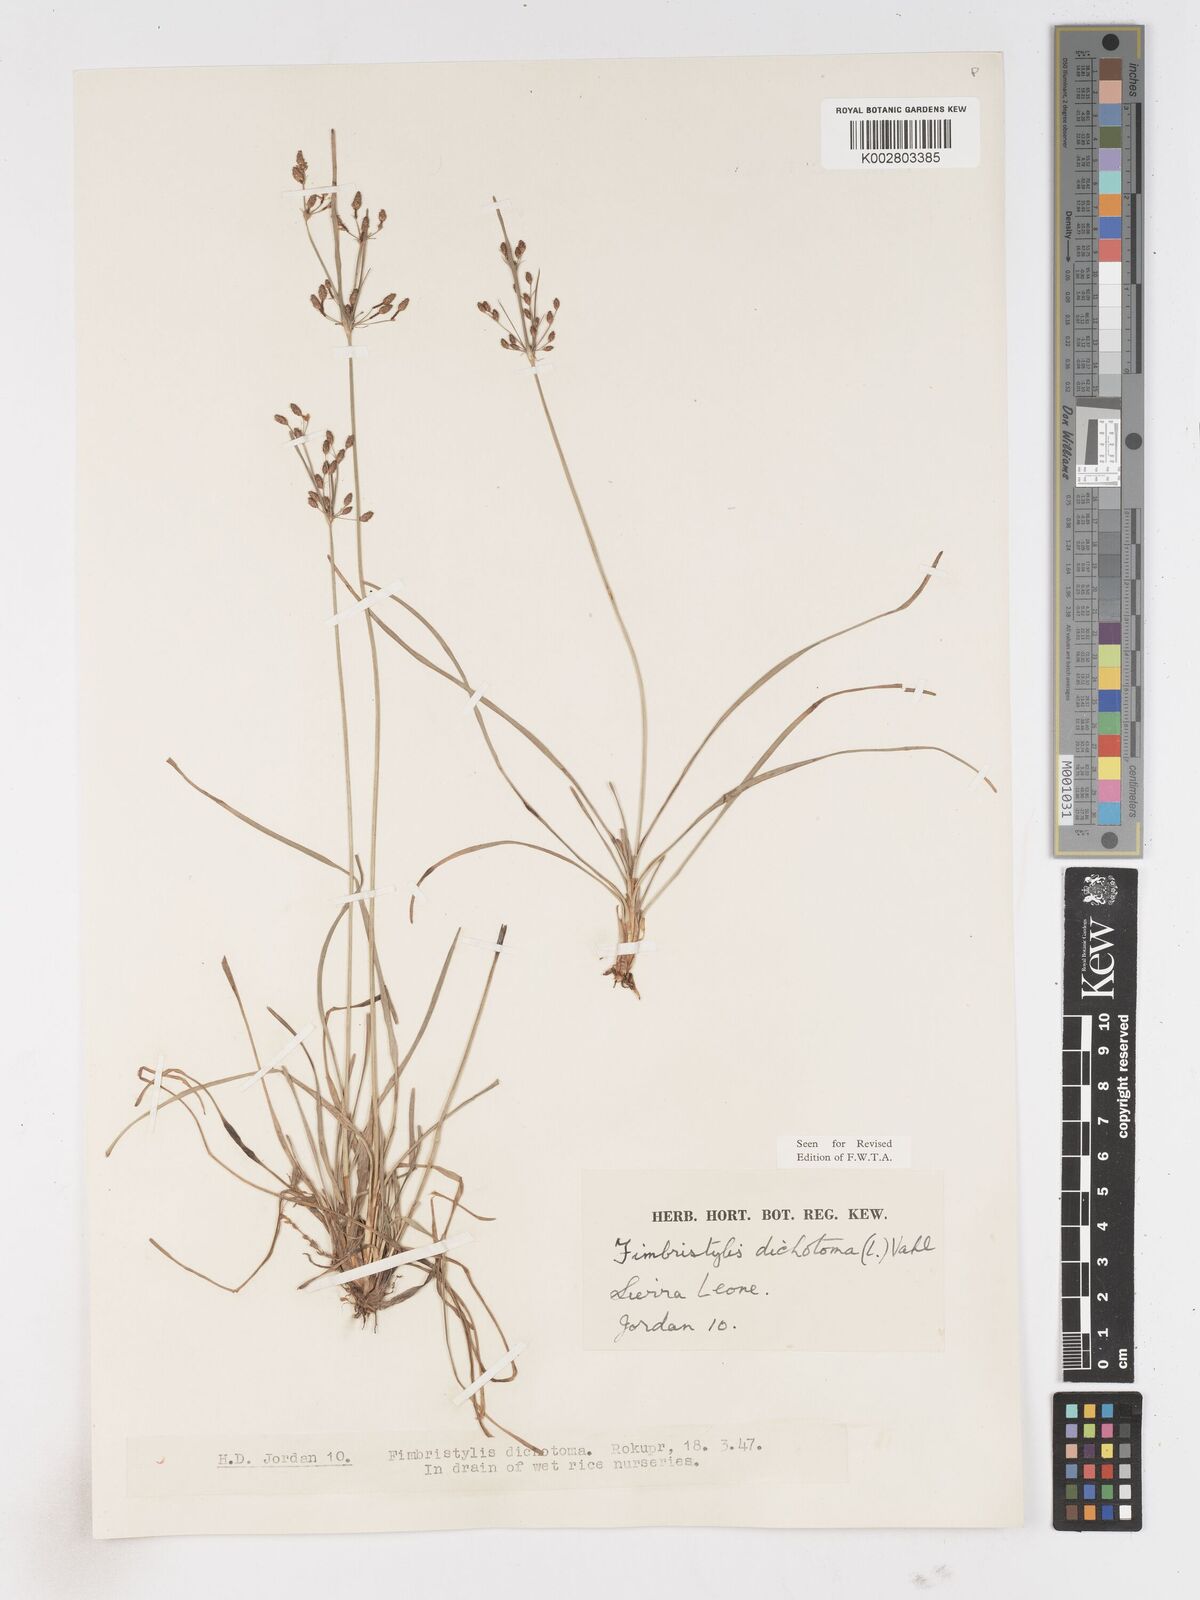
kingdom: Plantae
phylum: Tracheophyta
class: Liliopsida
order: Poales
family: Cyperaceae
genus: Fimbristylis
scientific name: Fimbristylis dichotoma
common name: Forked fimbry
